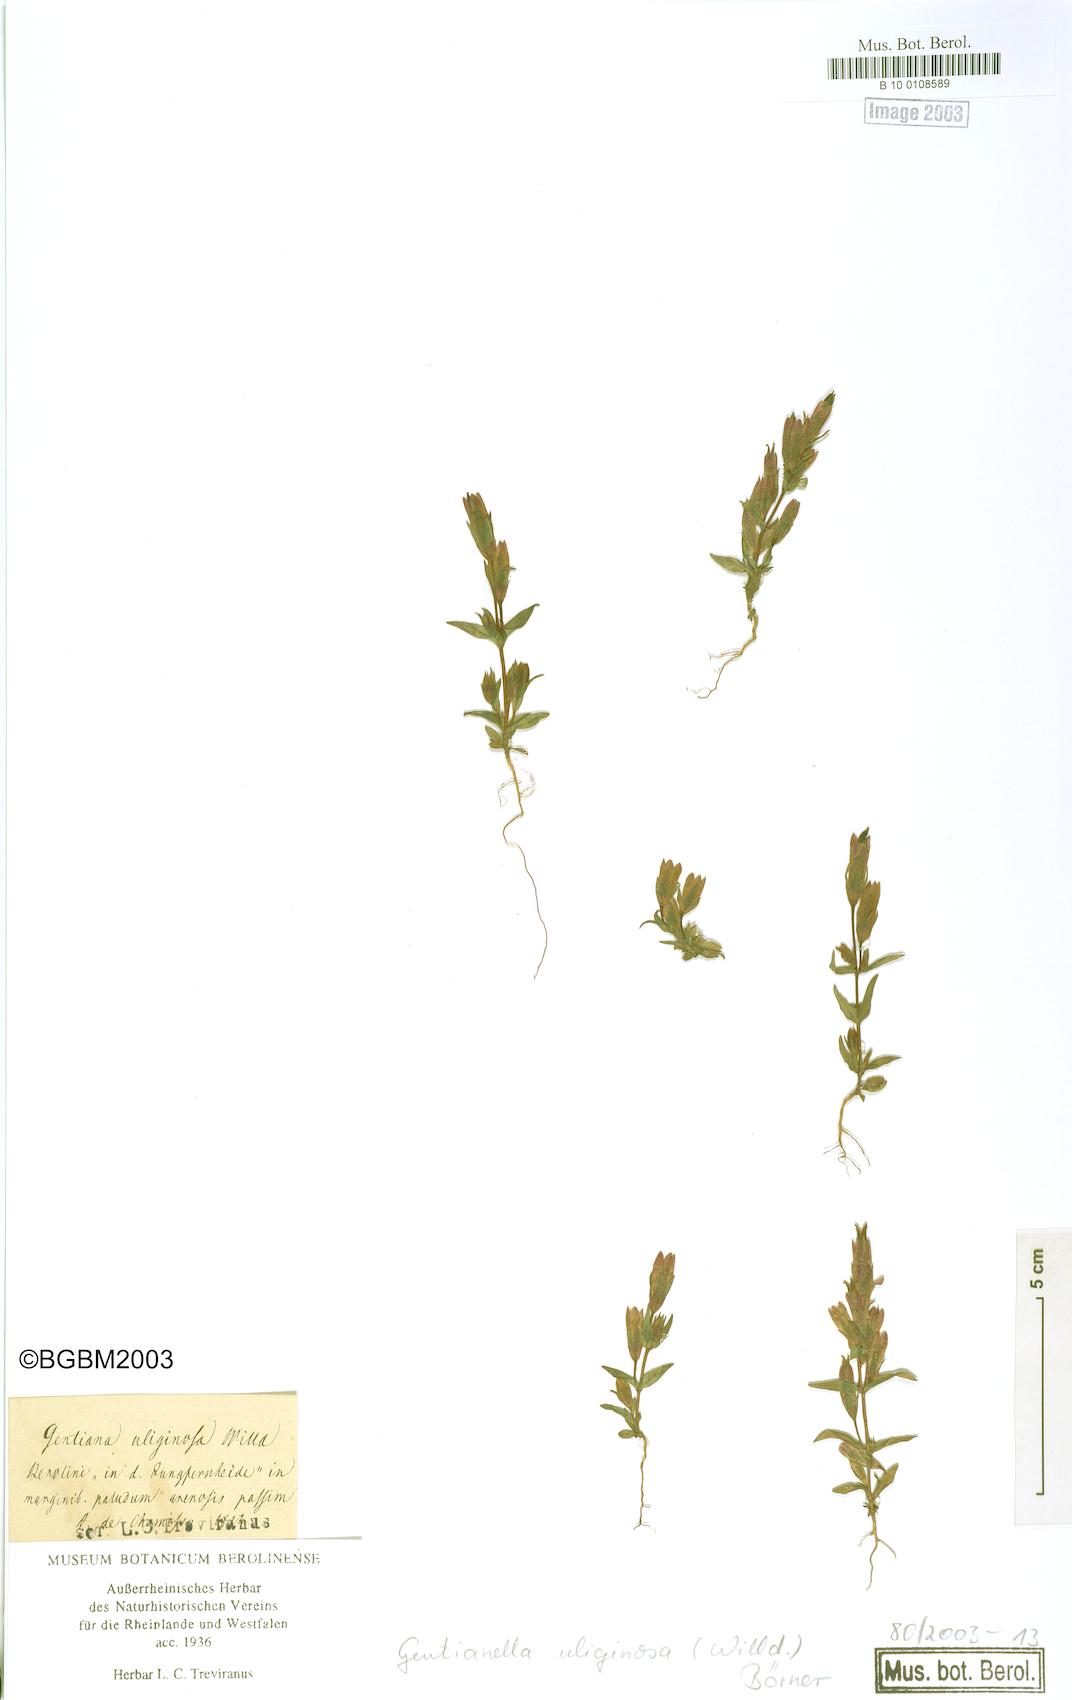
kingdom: Plantae
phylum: Tracheophyta
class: Magnoliopsida
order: Gentianales
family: Gentianaceae
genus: Gentianella
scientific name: Gentianella uliginosa
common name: Dune gentian
